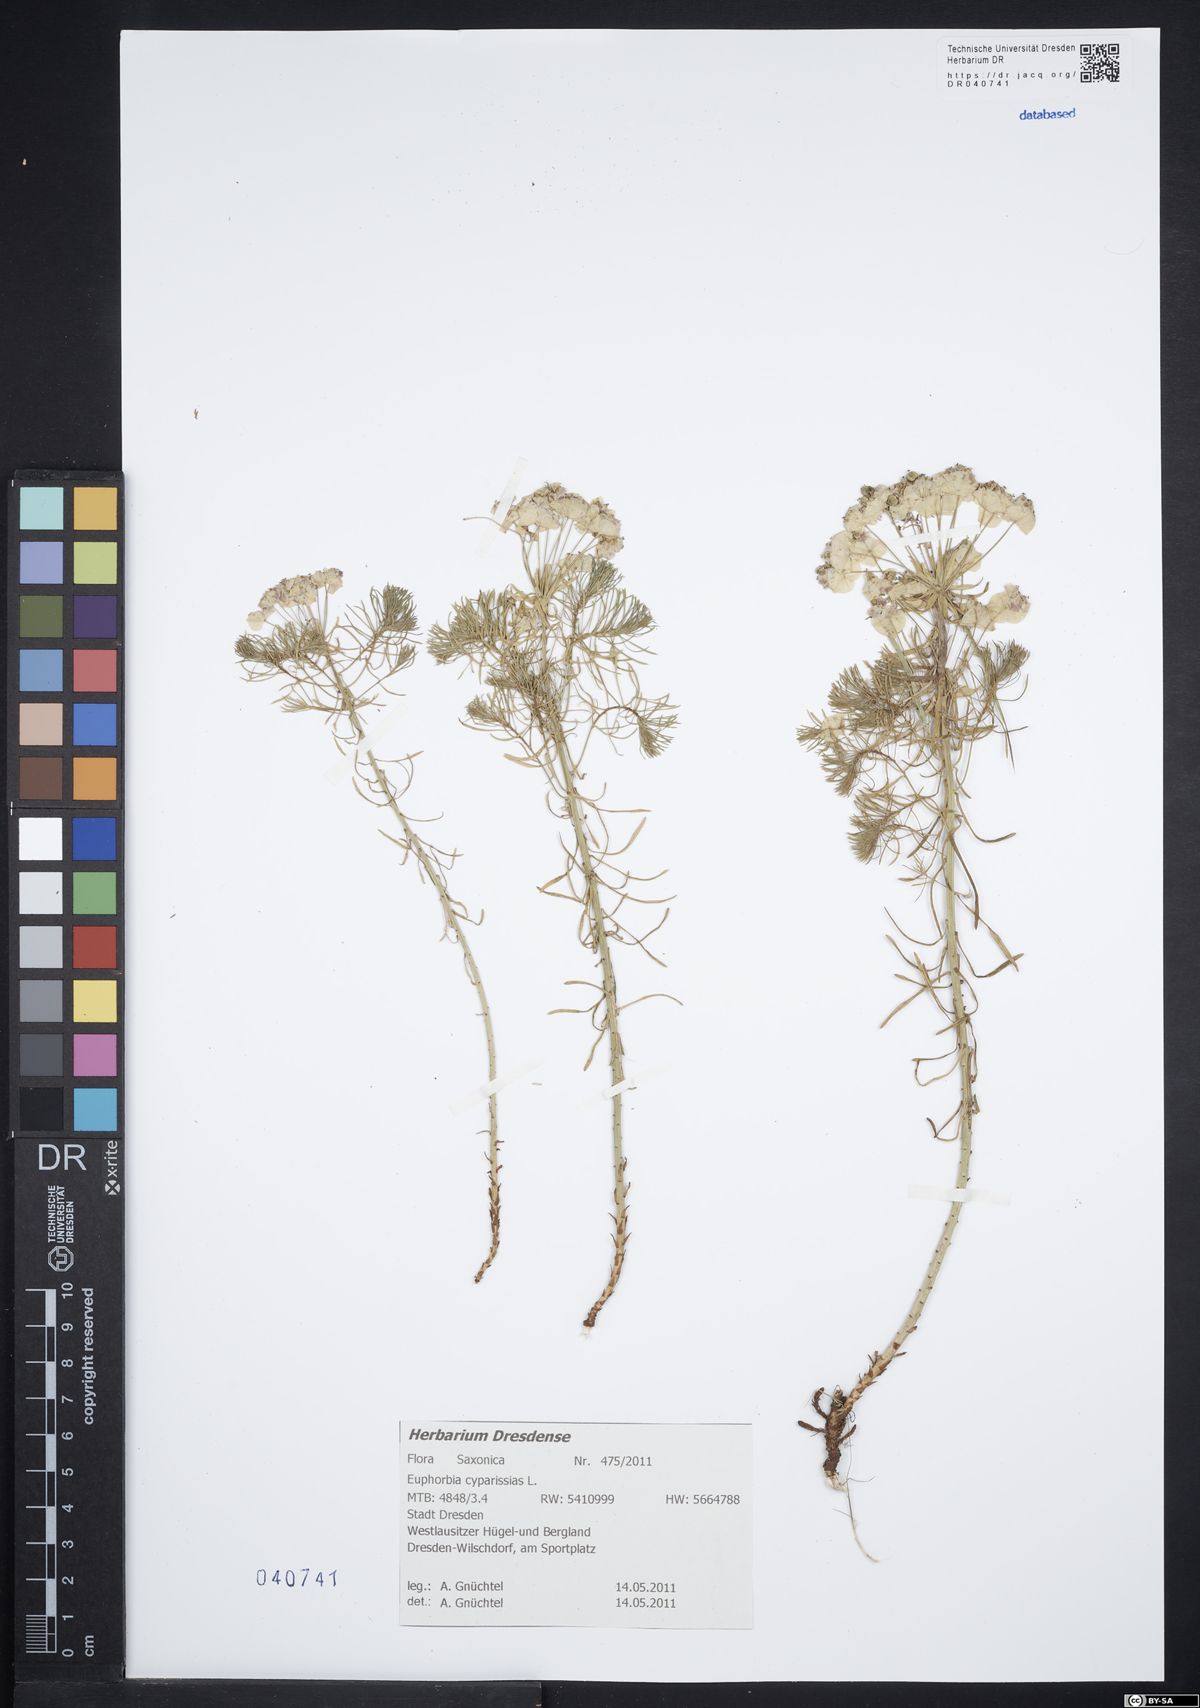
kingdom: Plantae
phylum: Tracheophyta
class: Magnoliopsida
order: Malpighiales
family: Euphorbiaceae
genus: Euphorbia
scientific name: Euphorbia cyparissias
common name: Cypress spurge
